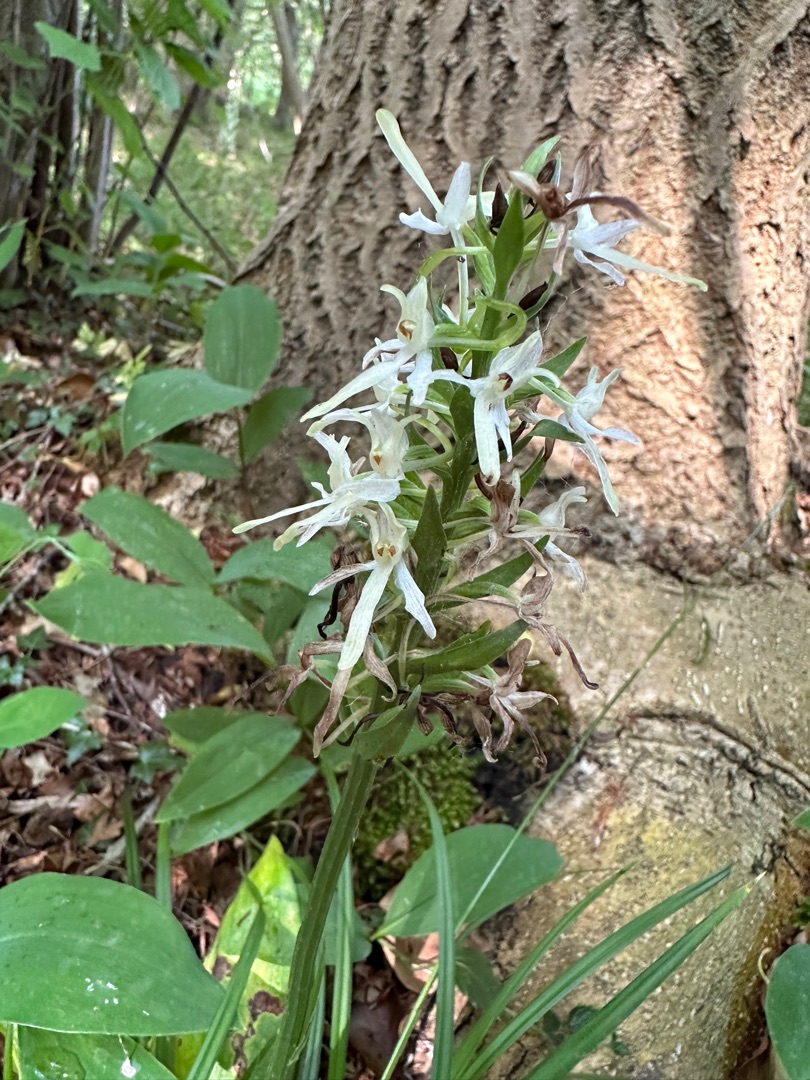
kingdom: Plantae
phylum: Tracheophyta
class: Liliopsida
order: Asparagales
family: Orchidaceae
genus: Platanthera
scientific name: Platanthera bifolia
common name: Langsporet gøgelilje
